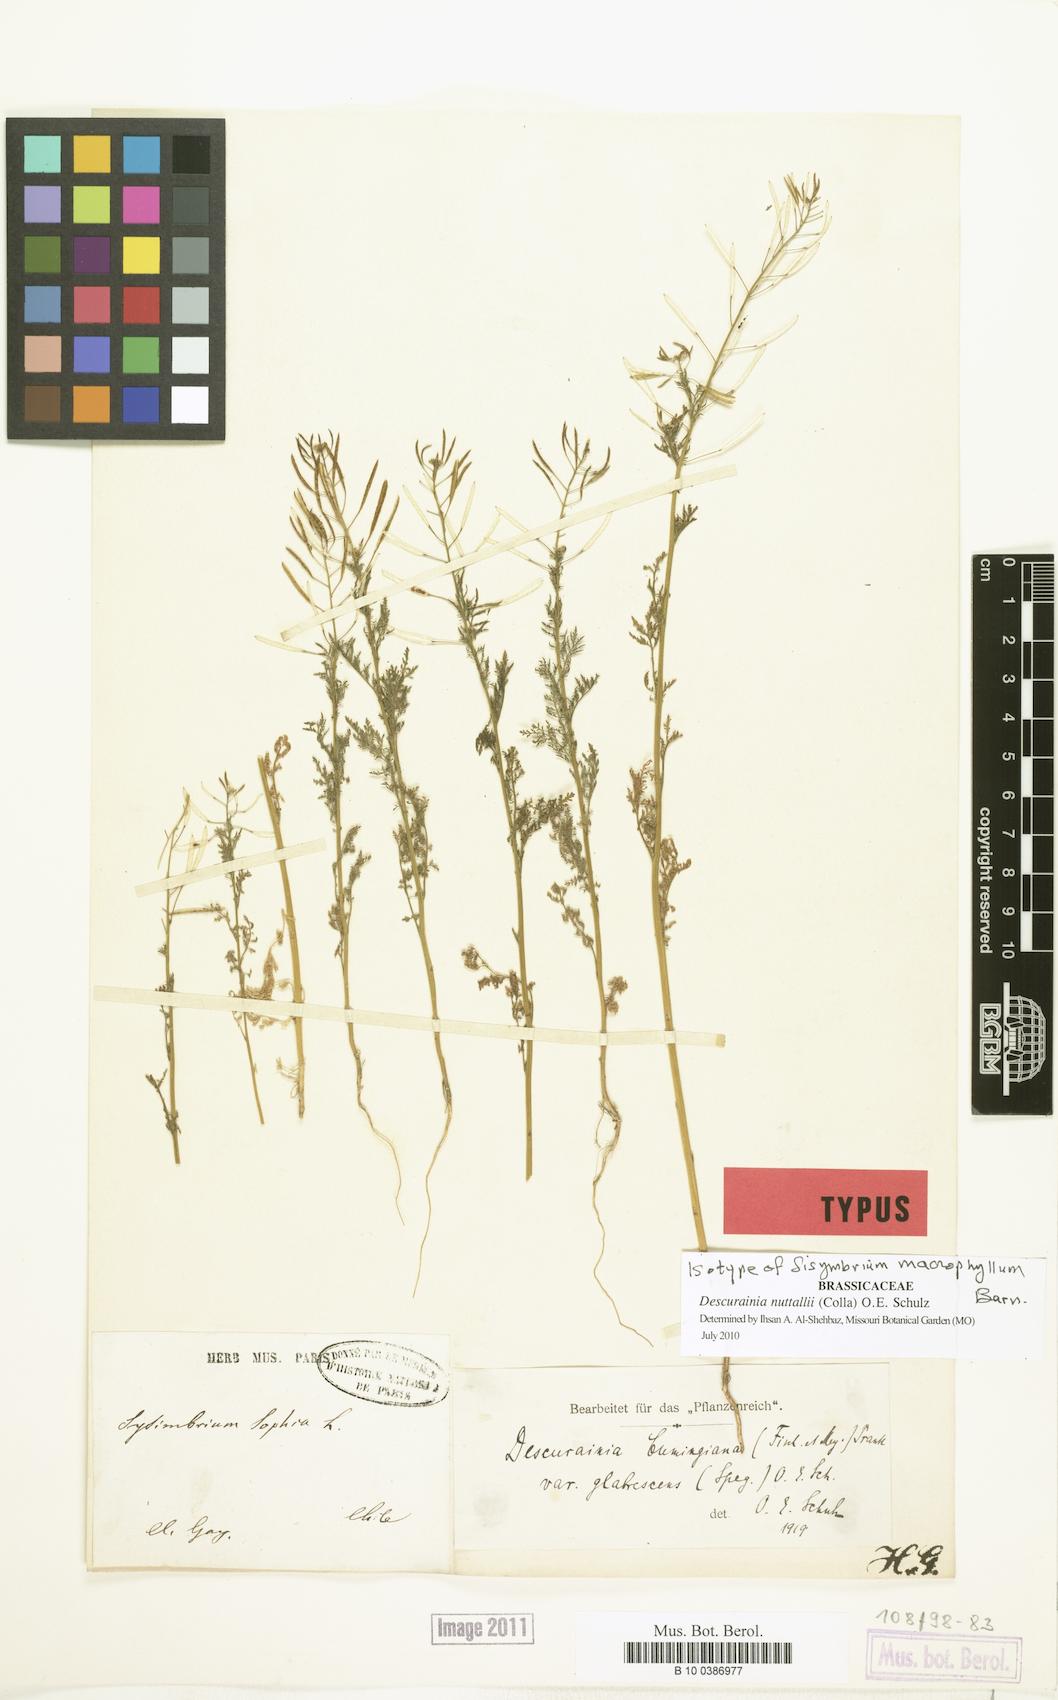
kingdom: Plantae
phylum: Tracheophyta
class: Magnoliopsida
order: Brassicales
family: Brassicaceae
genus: Descurainia
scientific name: Descurainia nuttallii
